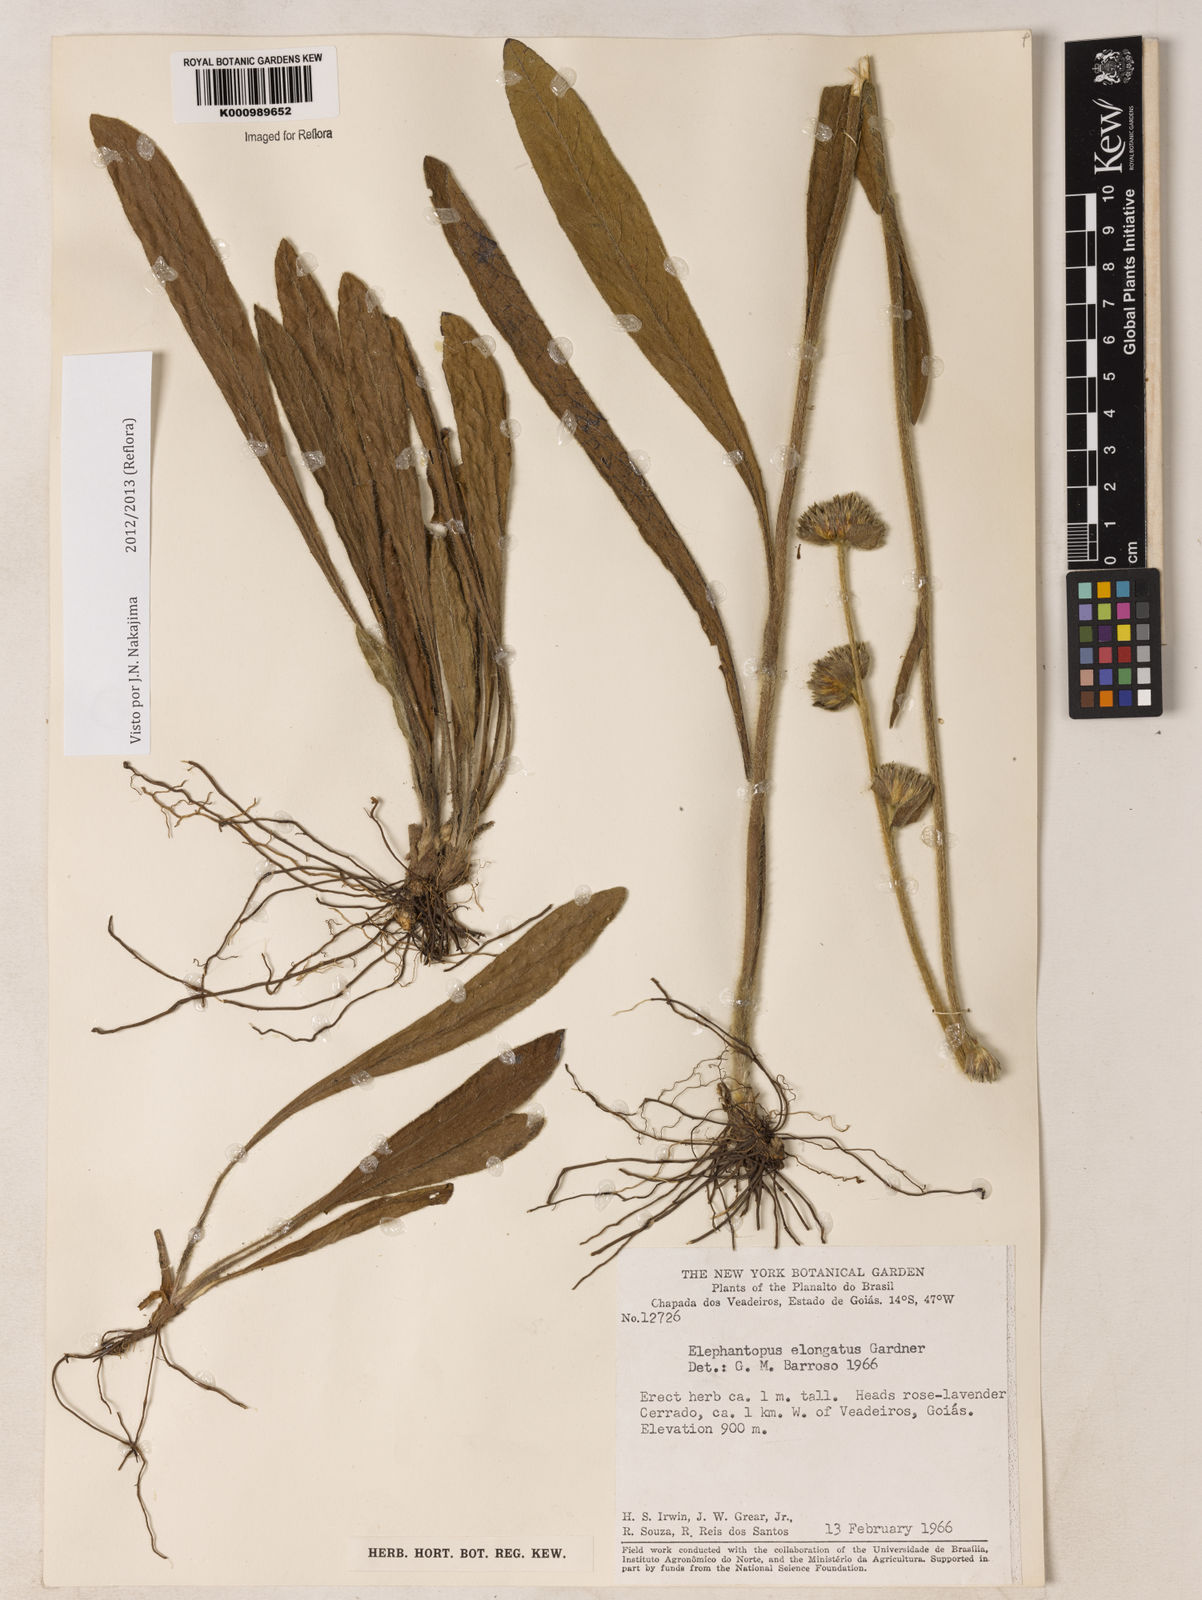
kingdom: Plantae
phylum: Tracheophyta
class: Magnoliopsida
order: Asterales
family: Asteraceae
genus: Elephantopus
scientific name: Elephantopus elongatus
